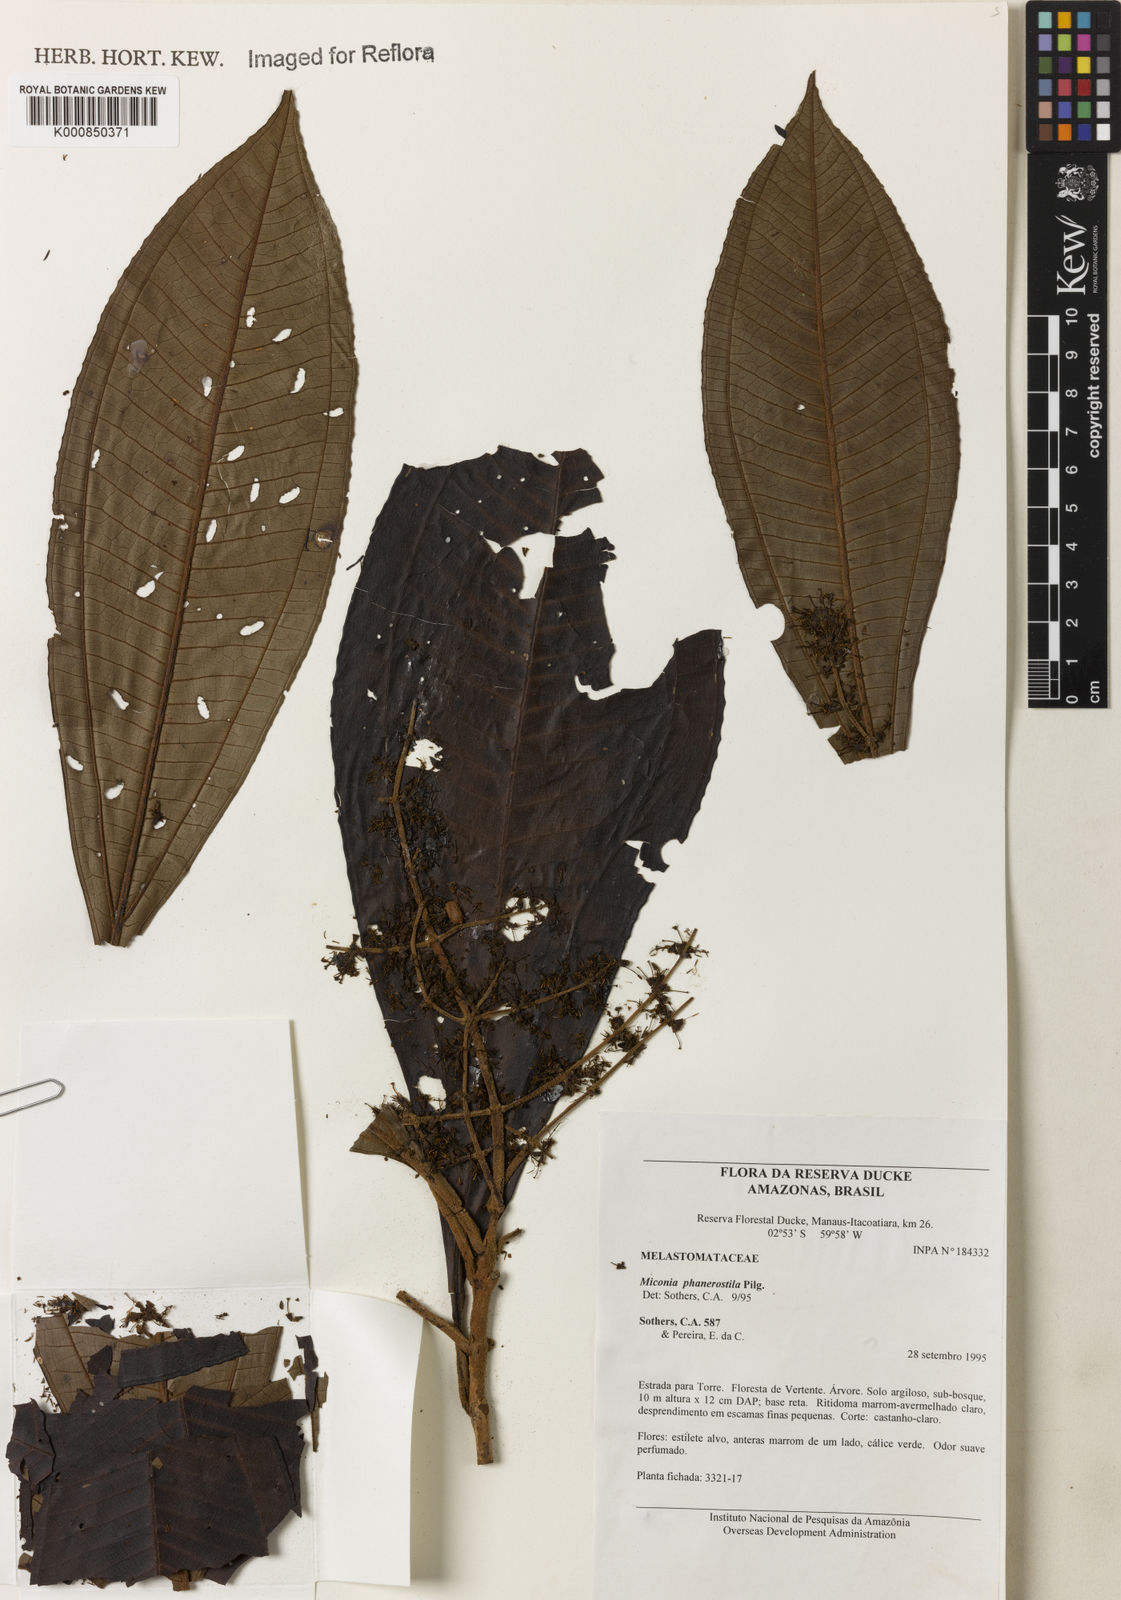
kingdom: Plantae
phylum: Tracheophyta
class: Magnoliopsida
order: Myrtales
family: Melastomataceae
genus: Miconia
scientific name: Miconia phanerostila
